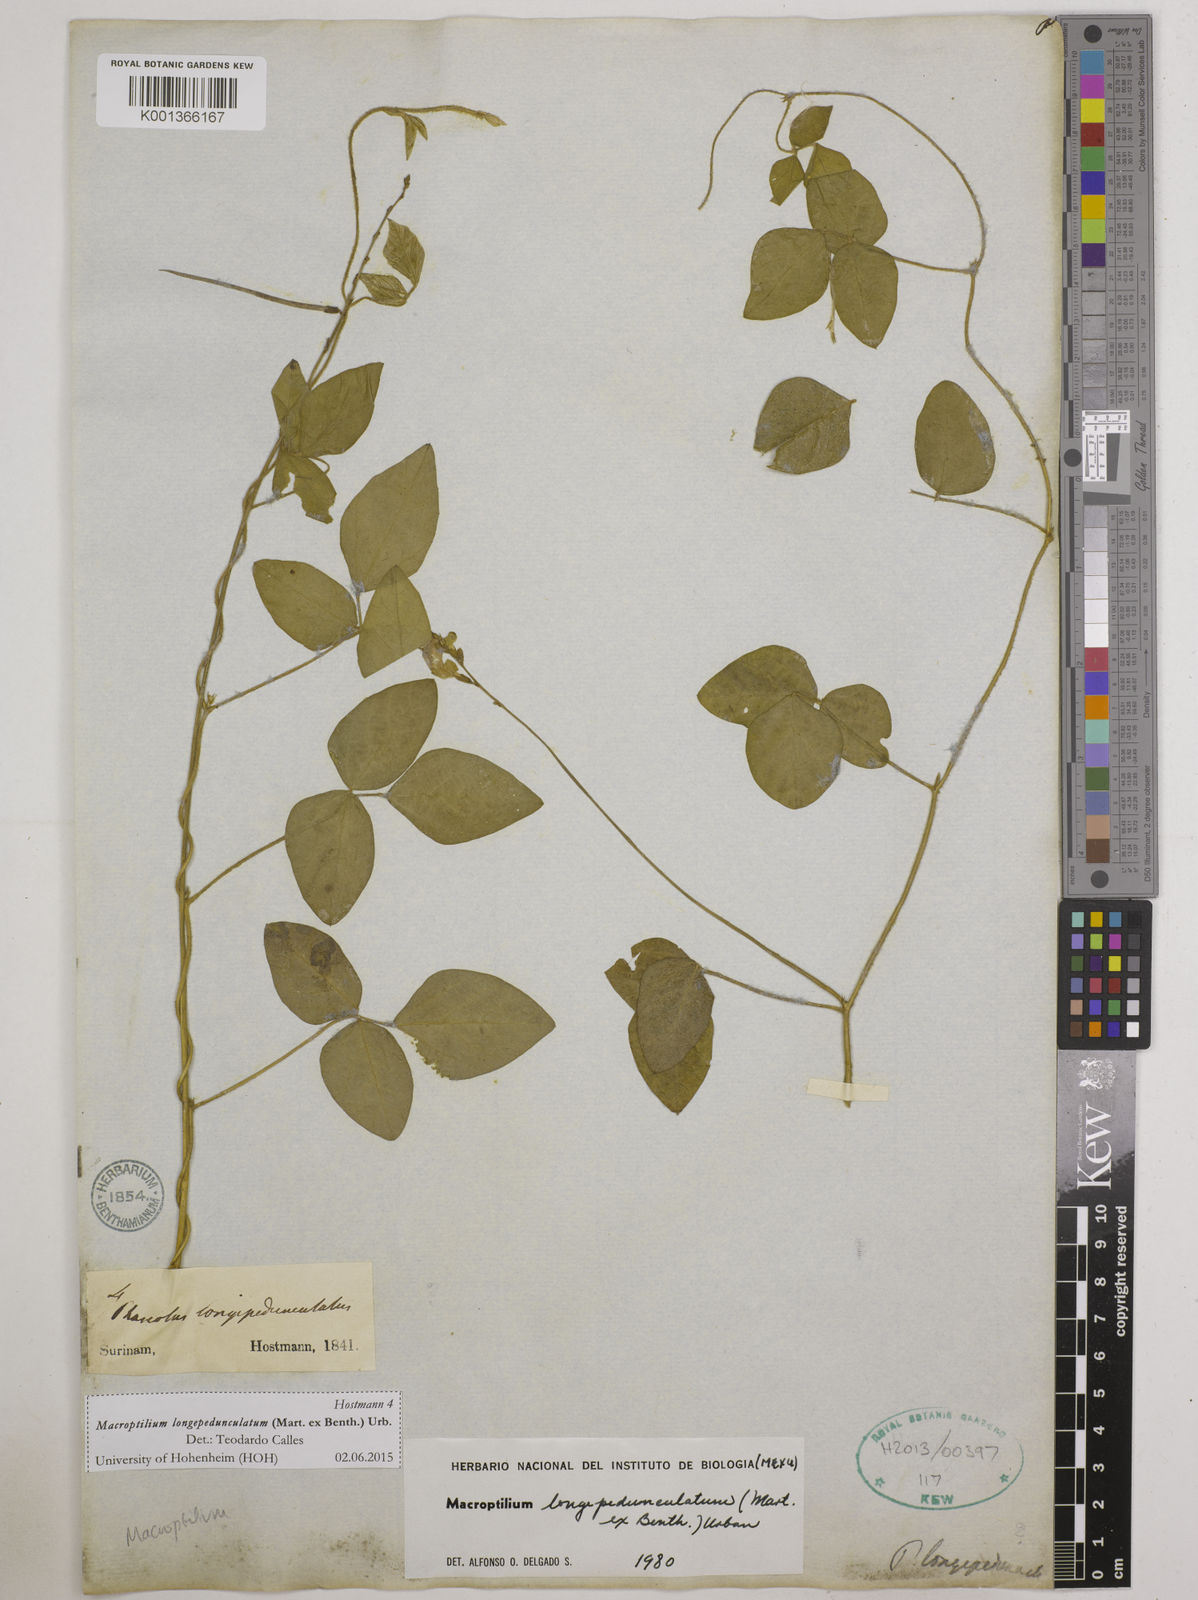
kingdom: Plantae
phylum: Tracheophyta
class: Magnoliopsida
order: Fabales
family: Fabaceae
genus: Macroptilium
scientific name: Macroptilium longepedunculatum
